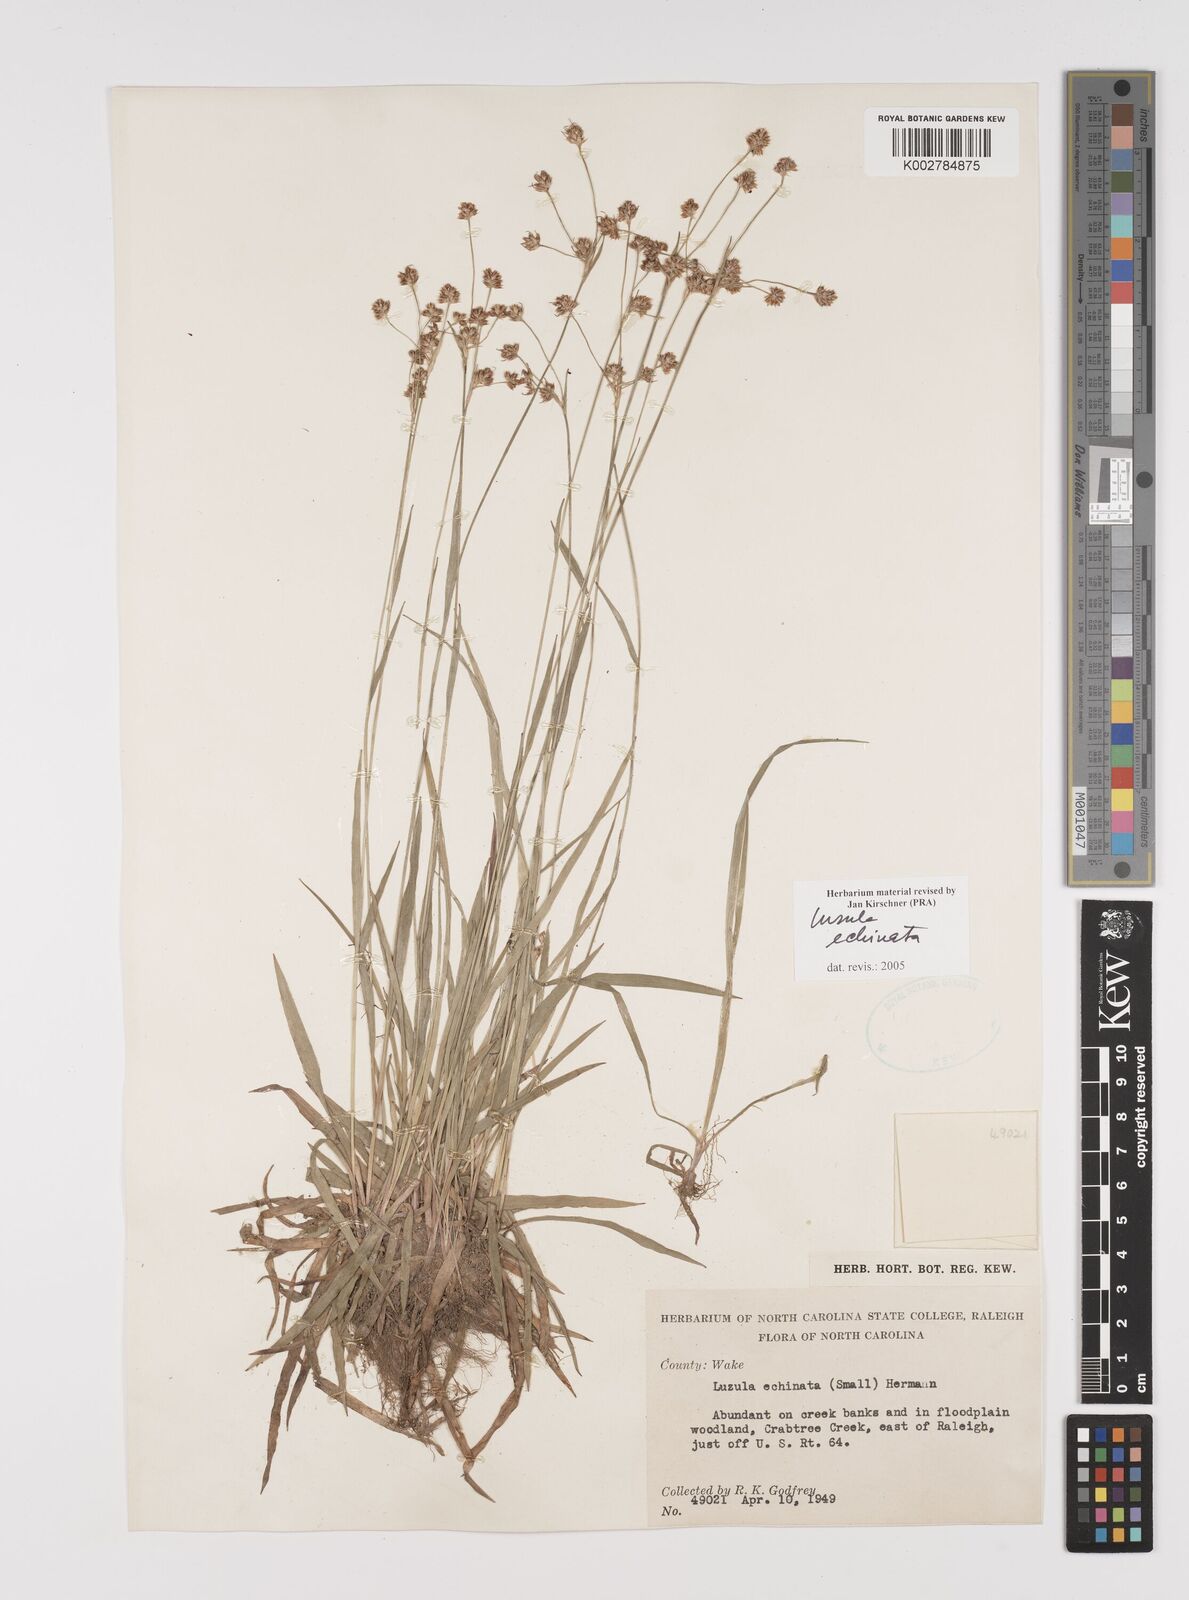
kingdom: Plantae
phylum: Tracheophyta
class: Liliopsida
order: Poales
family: Juncaceae
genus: Luzula
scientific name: Luzula echinata
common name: Hedgehog woodrush
